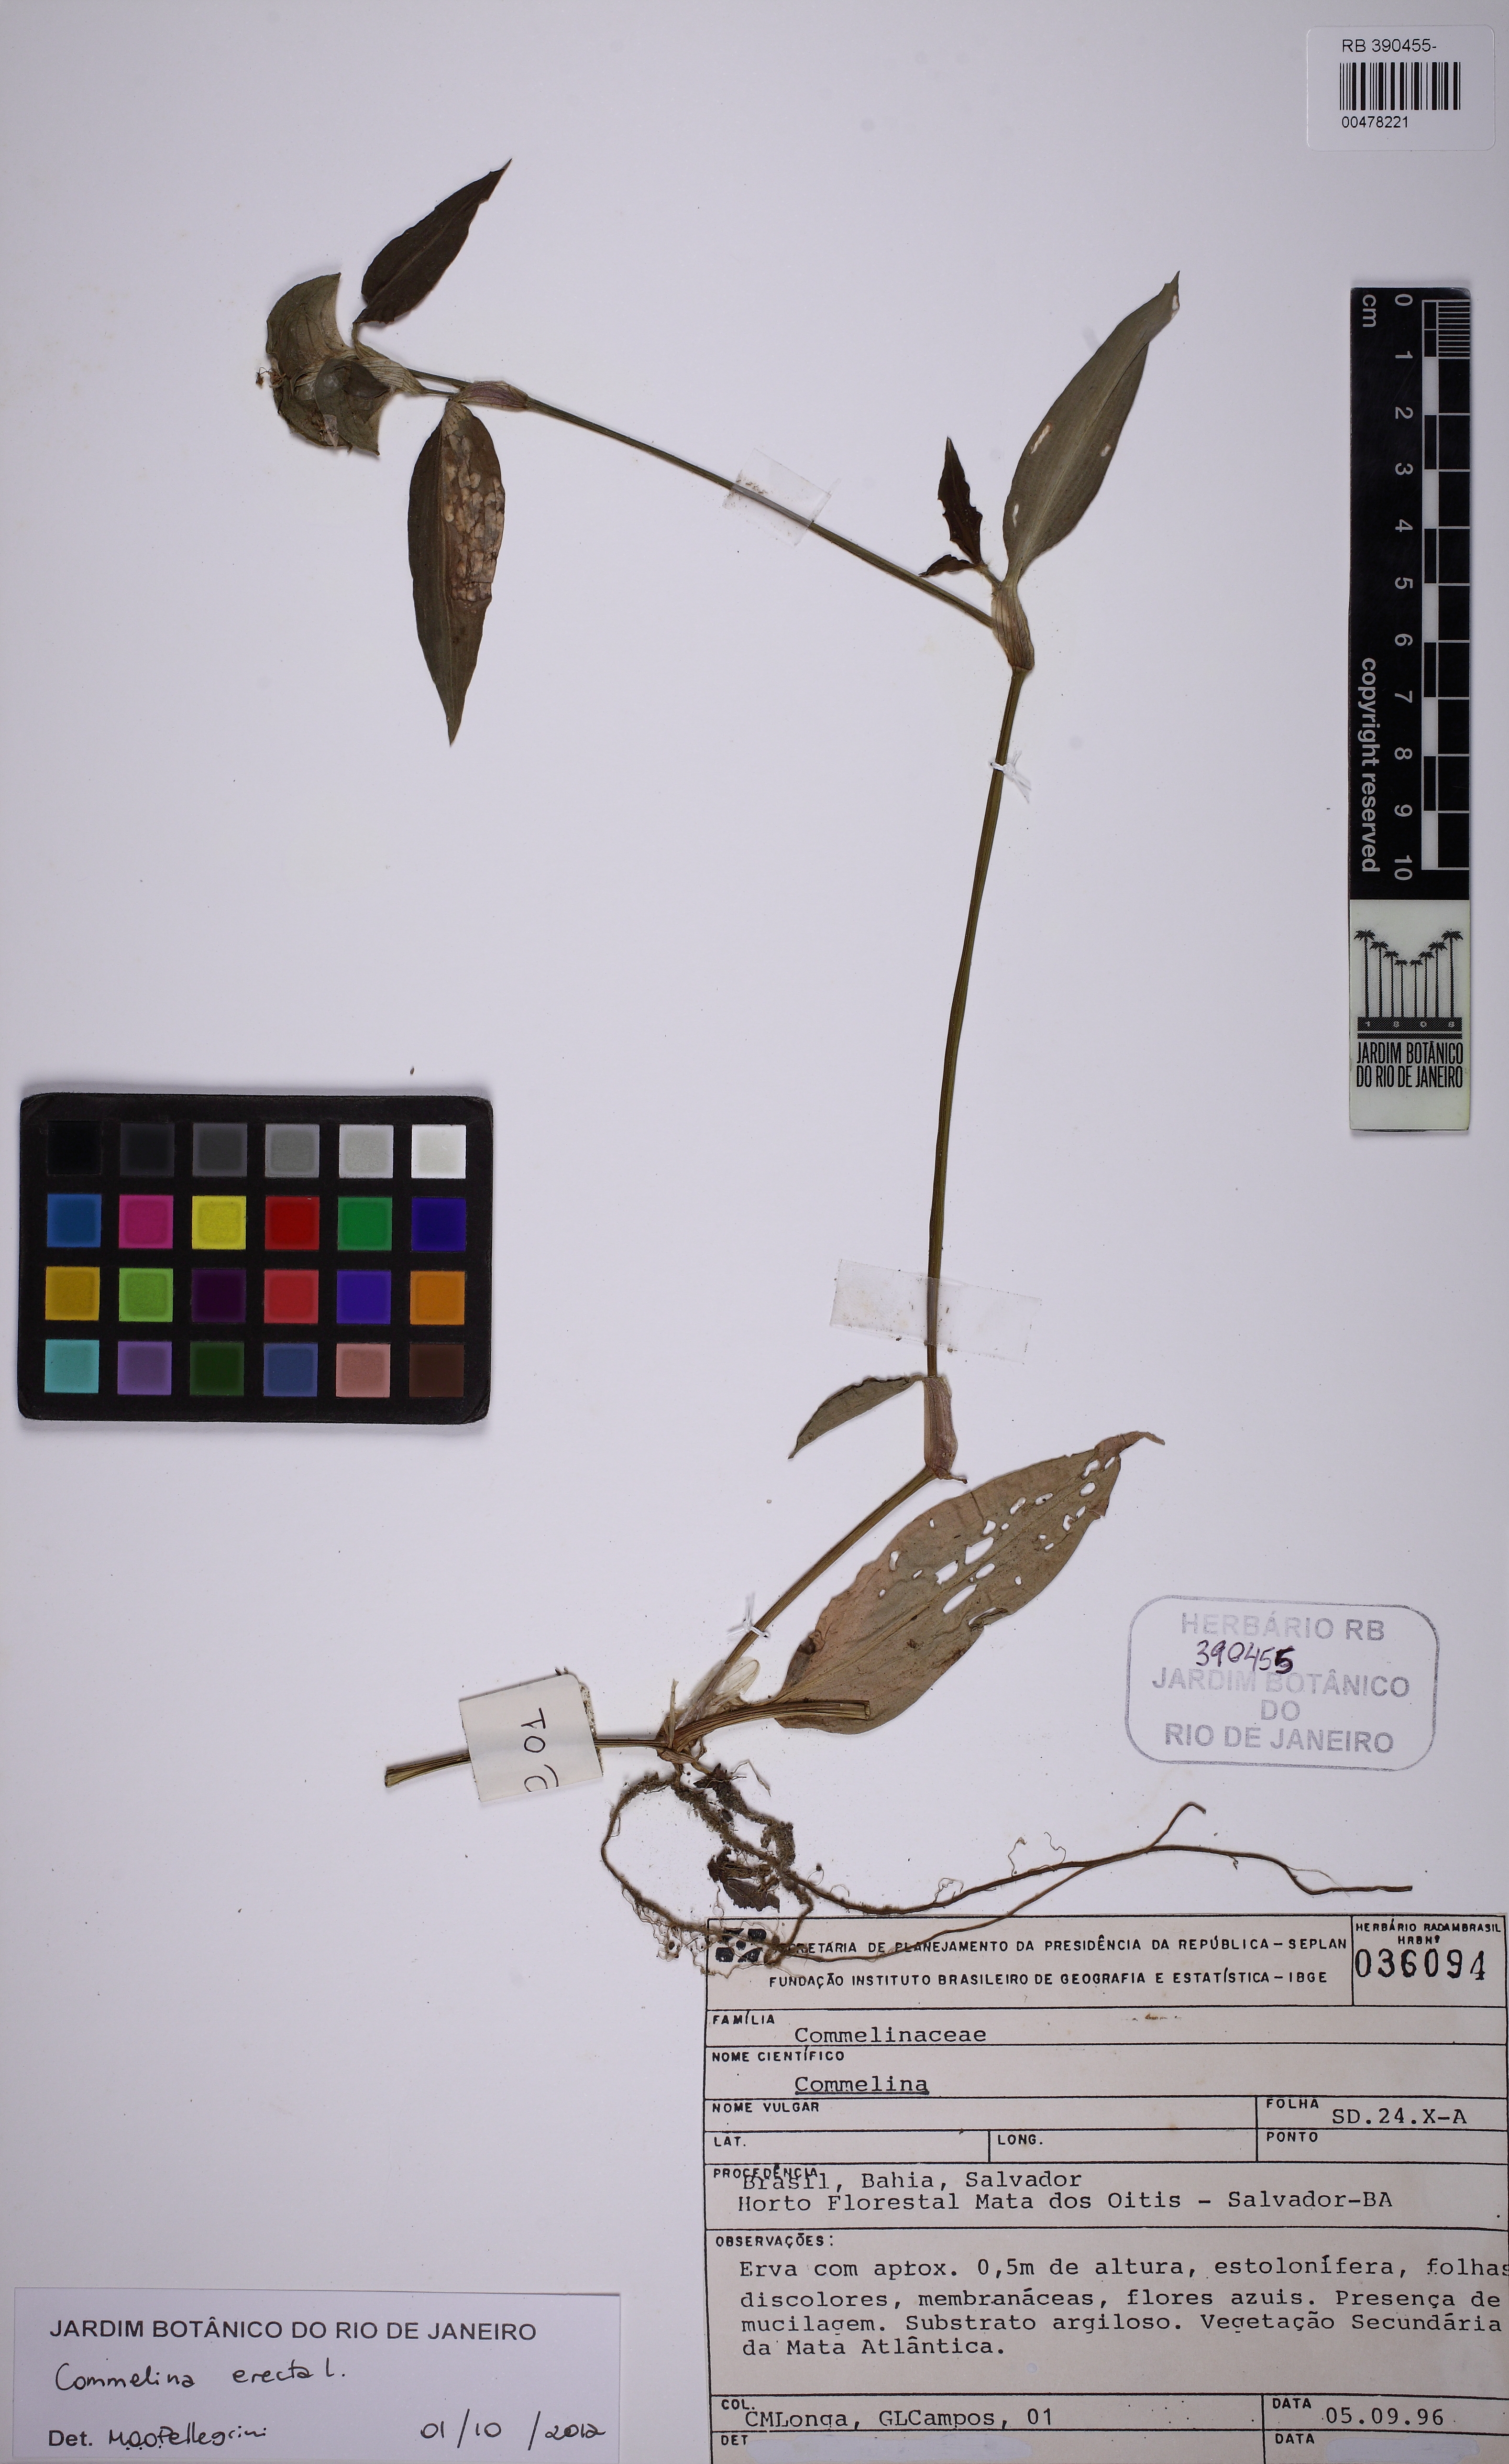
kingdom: Plantae
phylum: Tracheophyta
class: Liliopsida
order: Commelinales
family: Commelinaceae
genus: Commelina
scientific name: Commelina erecta
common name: Blousel blommetjie
